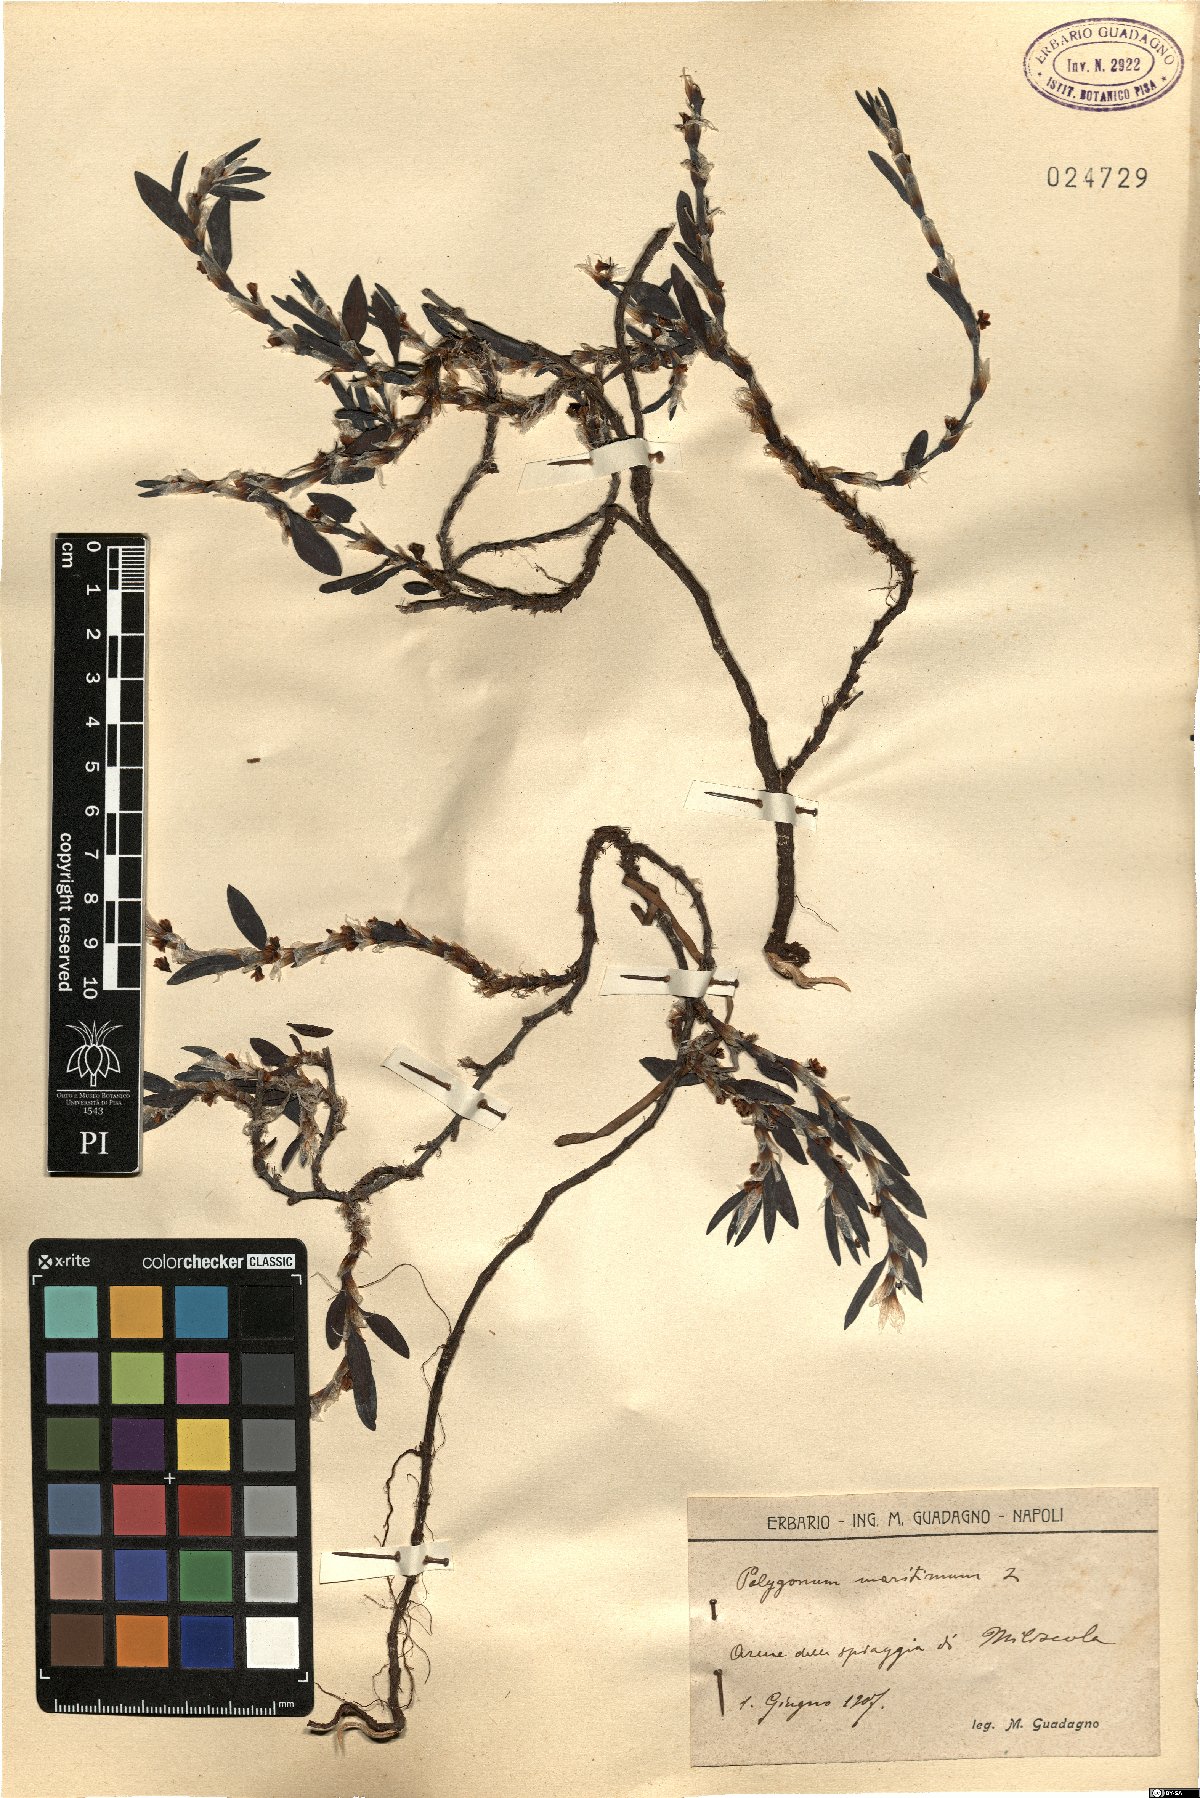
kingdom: Plantae
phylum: Tracheophyta
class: Magnoliopsida
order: Caryophyllales
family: Polygonaceae
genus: Polygonum
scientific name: Polygonum maritimum
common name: Sea knotgrass
